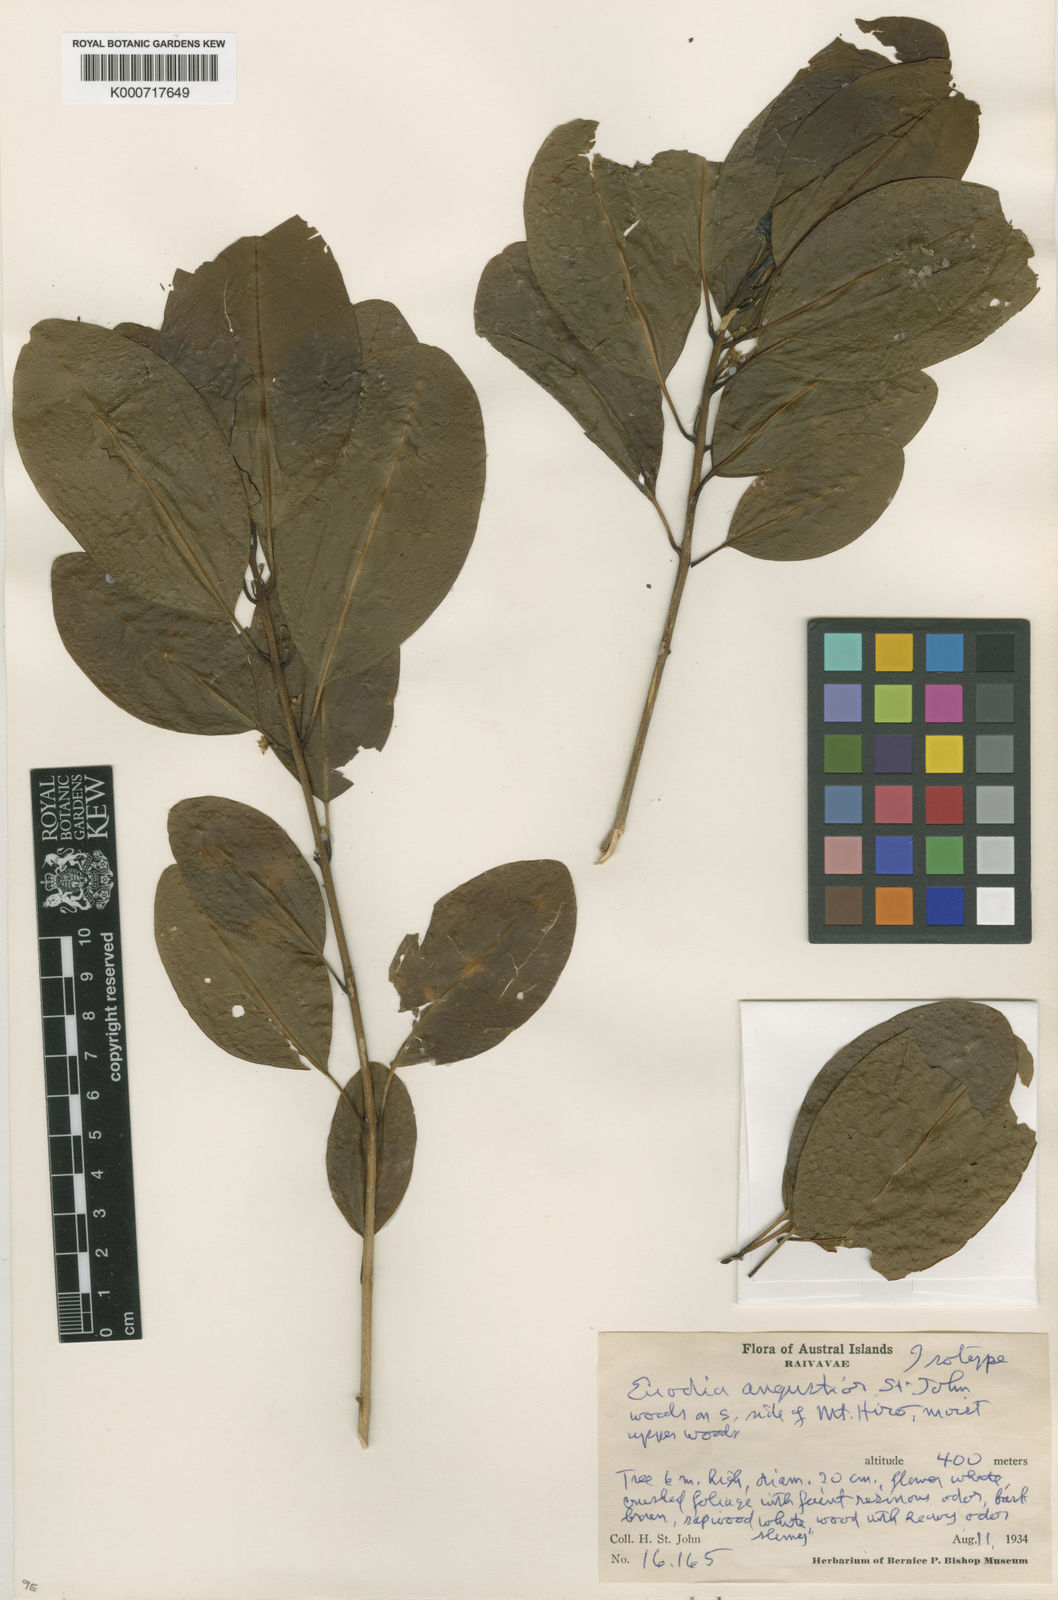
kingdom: Plantae
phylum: Tracheophyta
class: Magnoliopsida
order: Sapindales
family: Rutaceae
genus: Melicope
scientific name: Melicope bracteata
